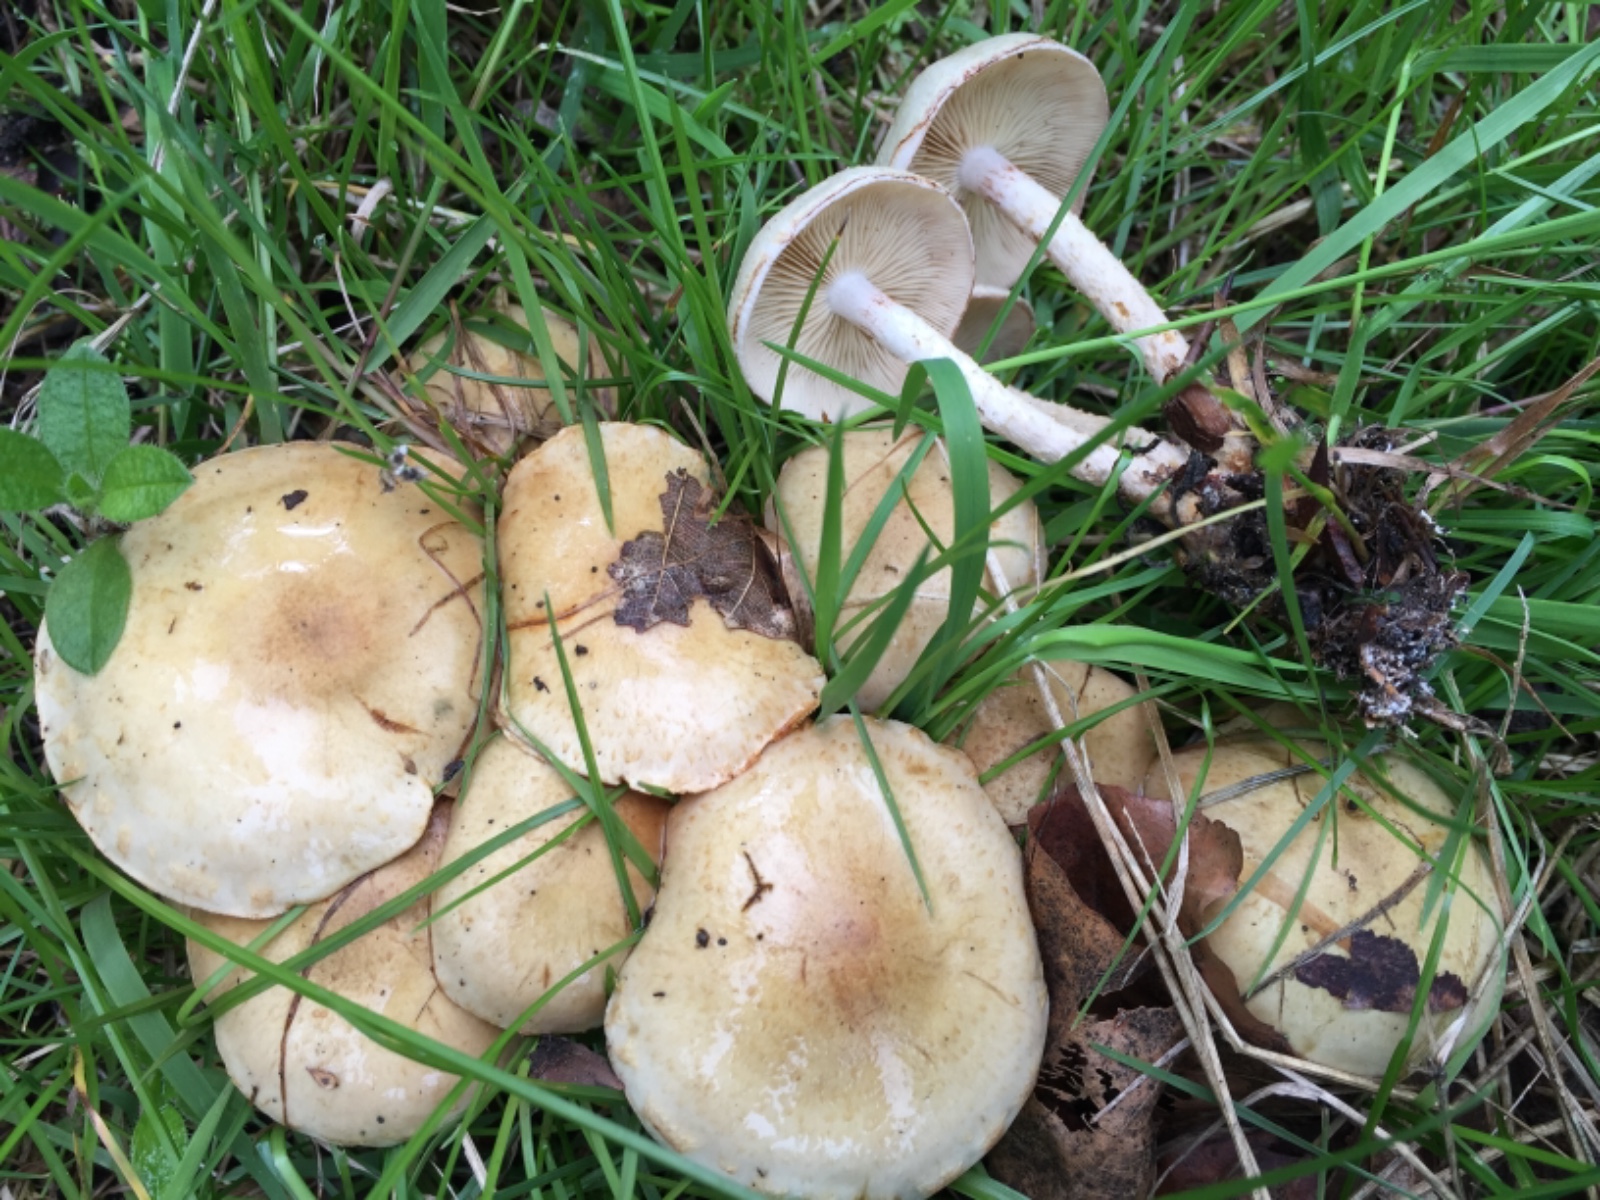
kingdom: Fungi
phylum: Basidiomycota
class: Agaricomycetes
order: Agaricales
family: Strophariaceae
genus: Pholiota
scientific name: Pholiota gummosa
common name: grøngul skælhat
